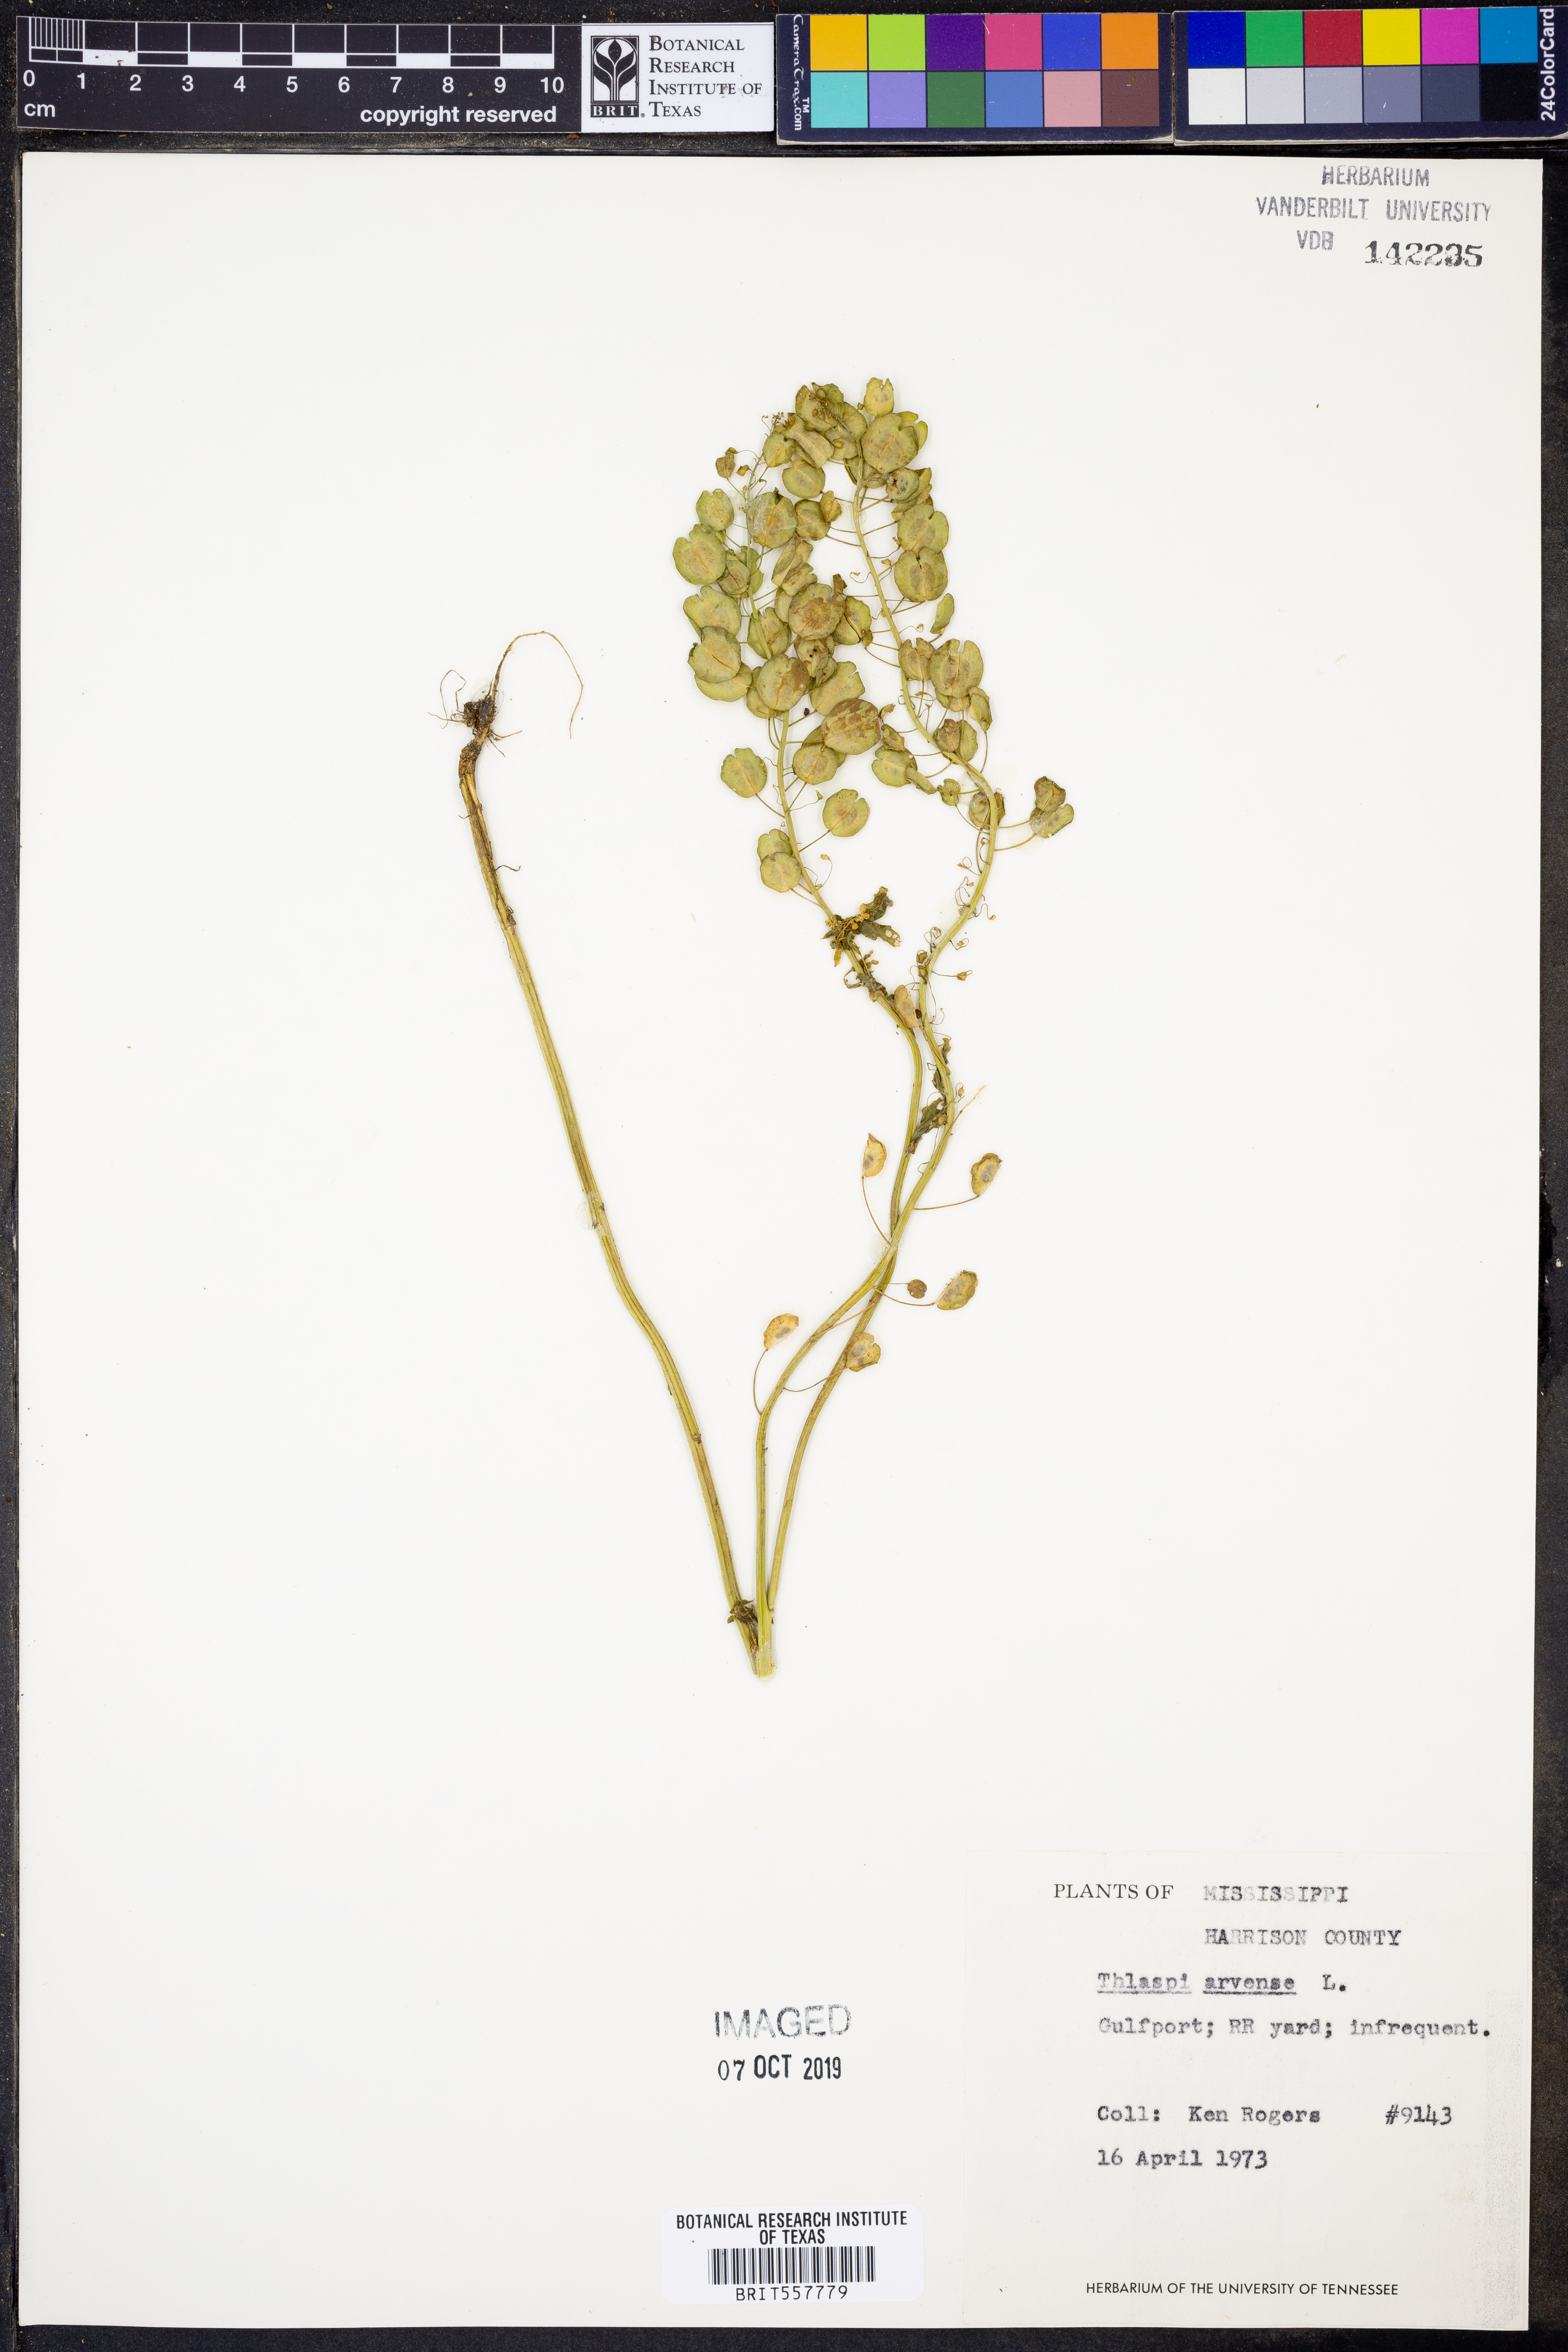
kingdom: Plantae
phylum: Tracheophyta
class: Magnoliopsida
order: Brassicales
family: Brassicaceae
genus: Thlaspi
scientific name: Thlaspi arvense
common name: Field pennycress
